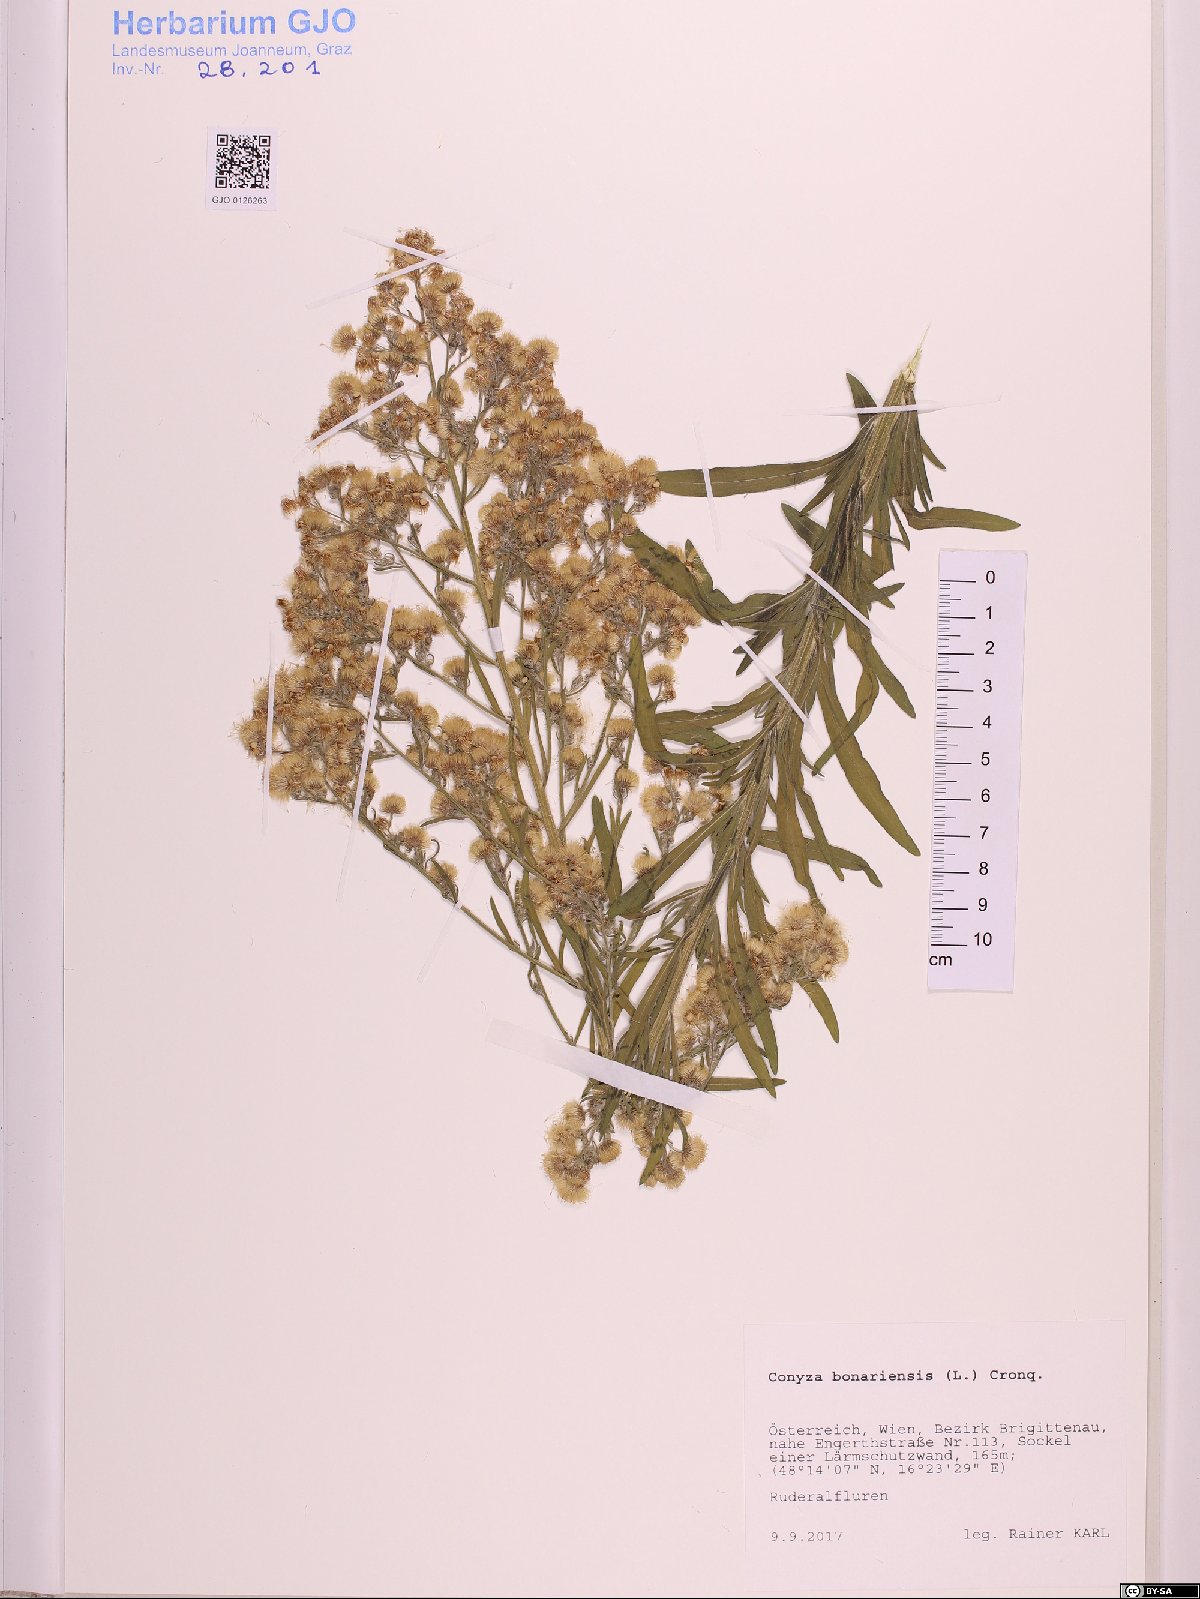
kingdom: Plantae
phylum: Tracheophyta
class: Magnoliopsida
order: Asterales
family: Asteraceae
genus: Erigeron
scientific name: Erigeron bonariensis
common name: Argentine fleabane
